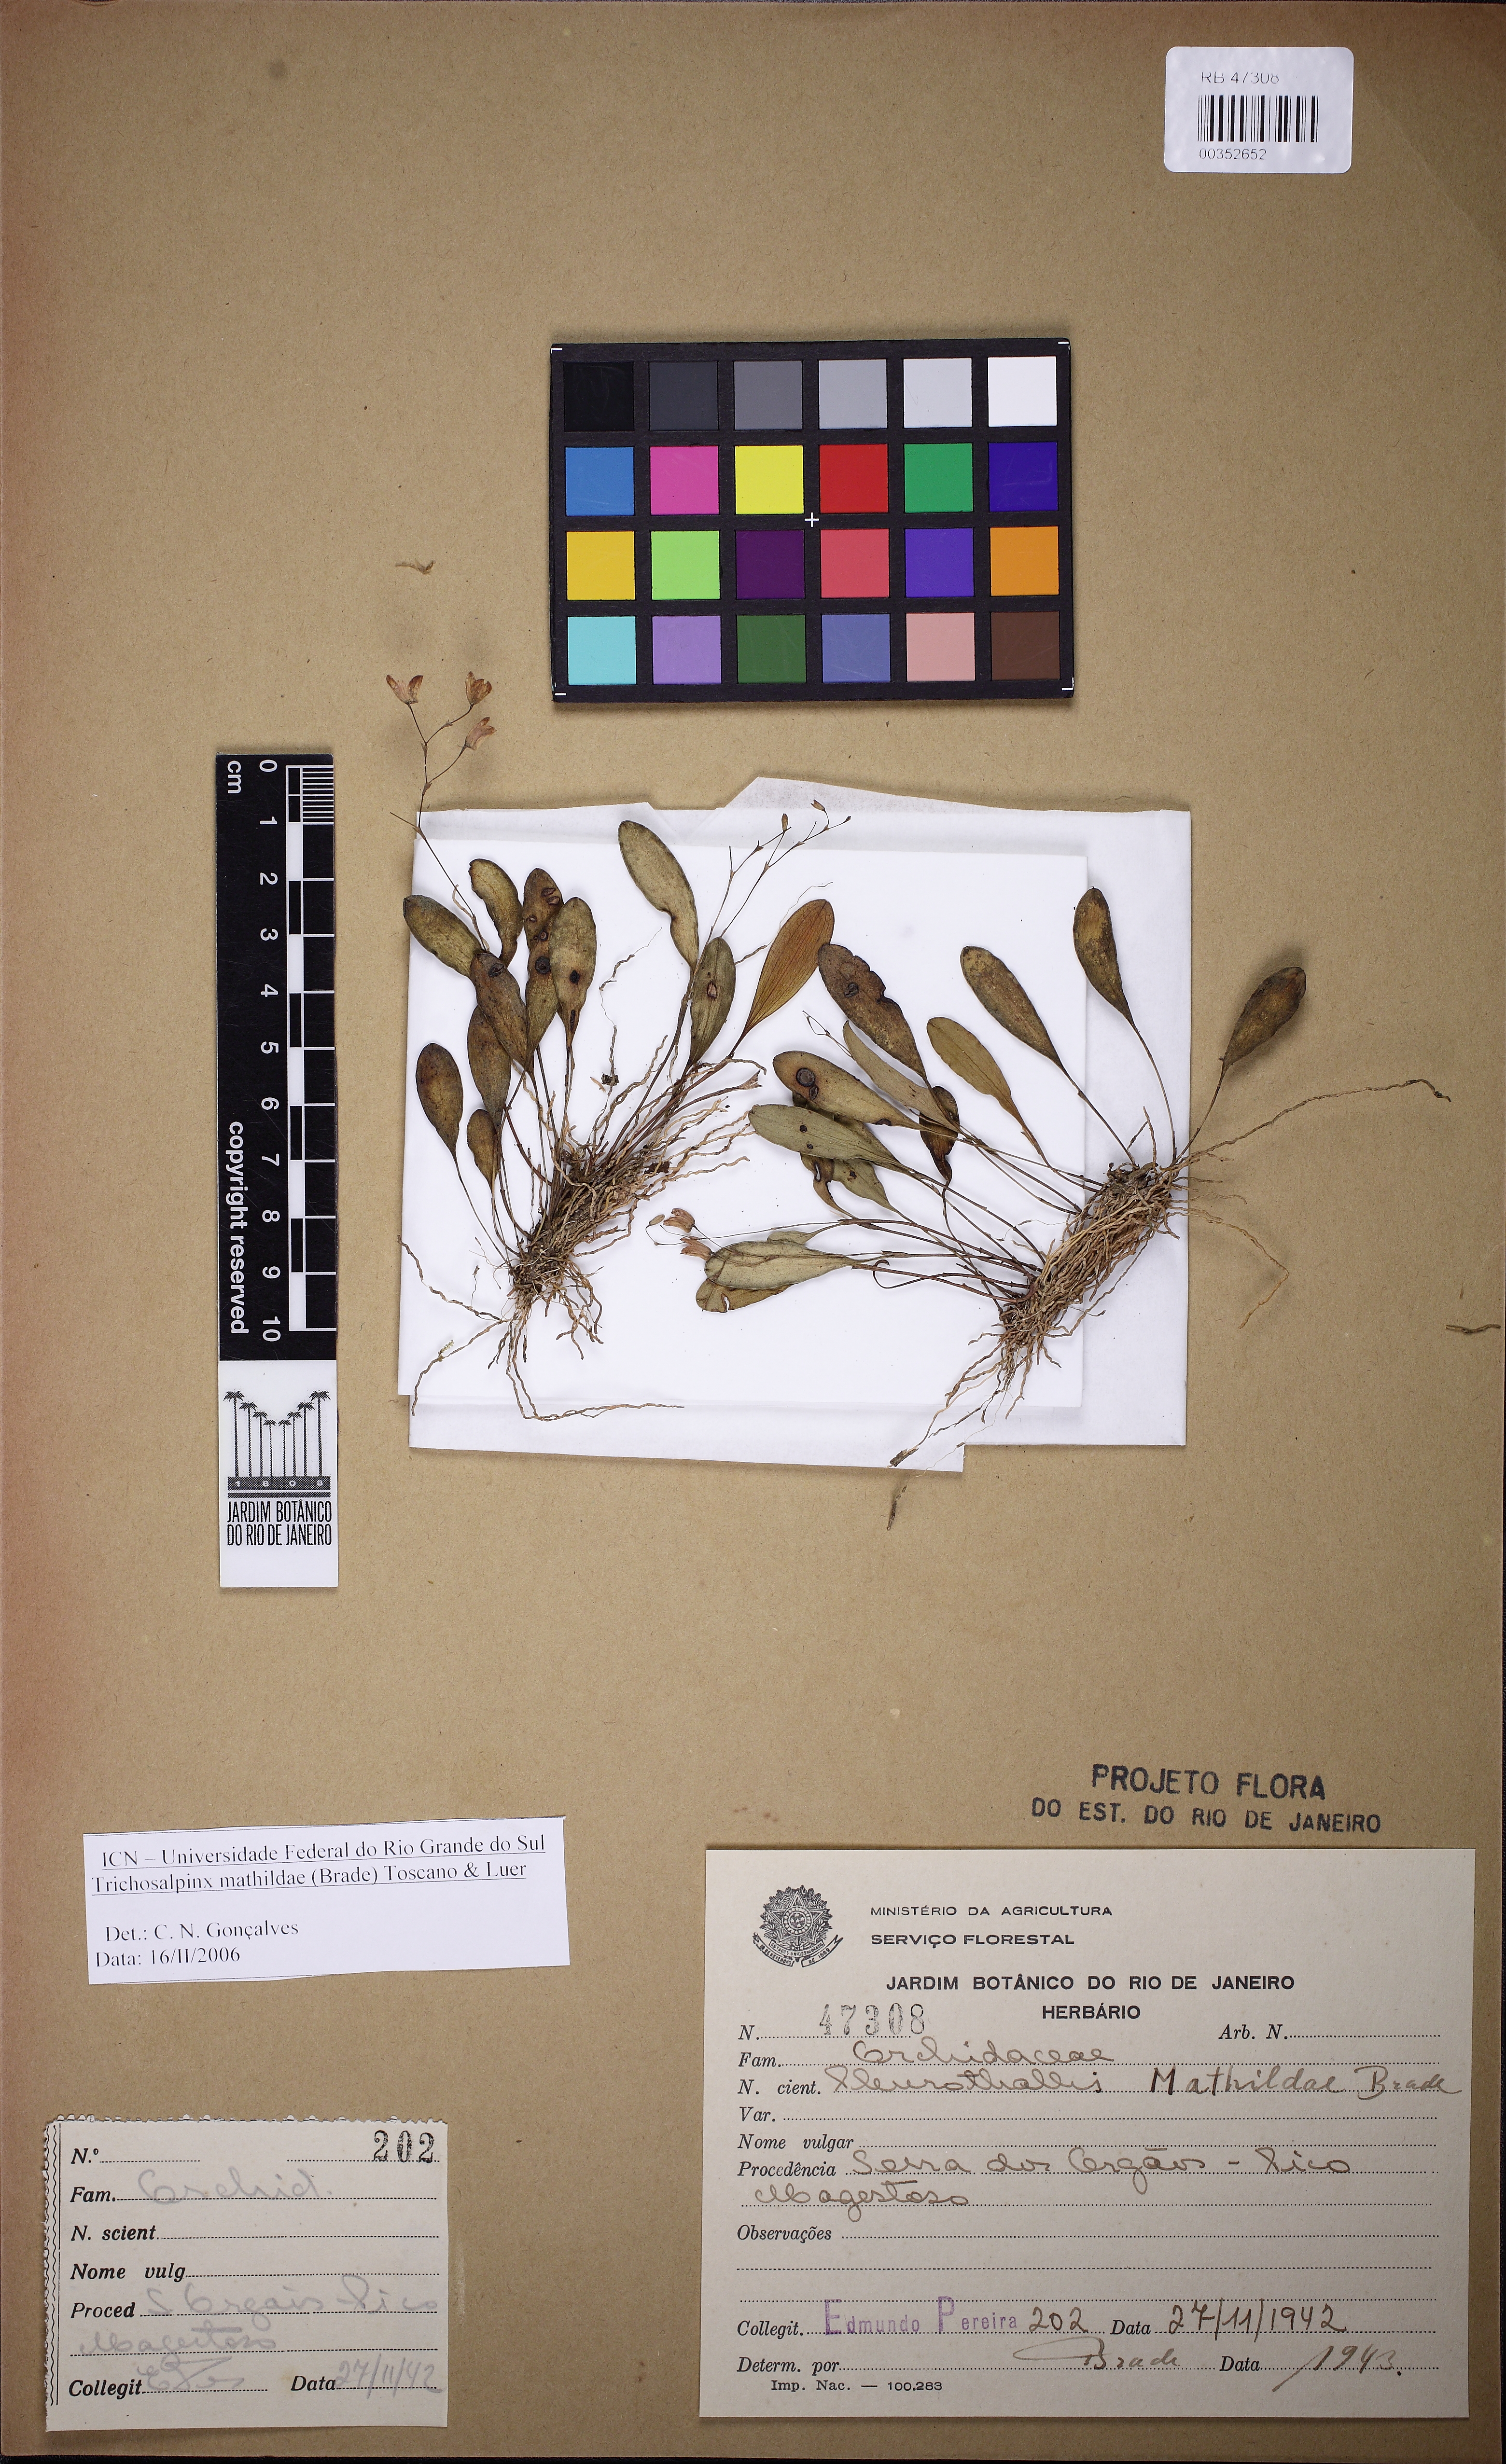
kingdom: Plantae
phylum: Tracheophyta
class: Liliopsida
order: Asparagales
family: Orchidaceae
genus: Pabstiella
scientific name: Pabstiella elegantula
